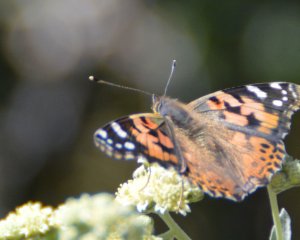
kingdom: Animalia
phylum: Arthropoda
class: Insecta
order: Lepidoptera
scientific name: Lepidoptera
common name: Butterflies
